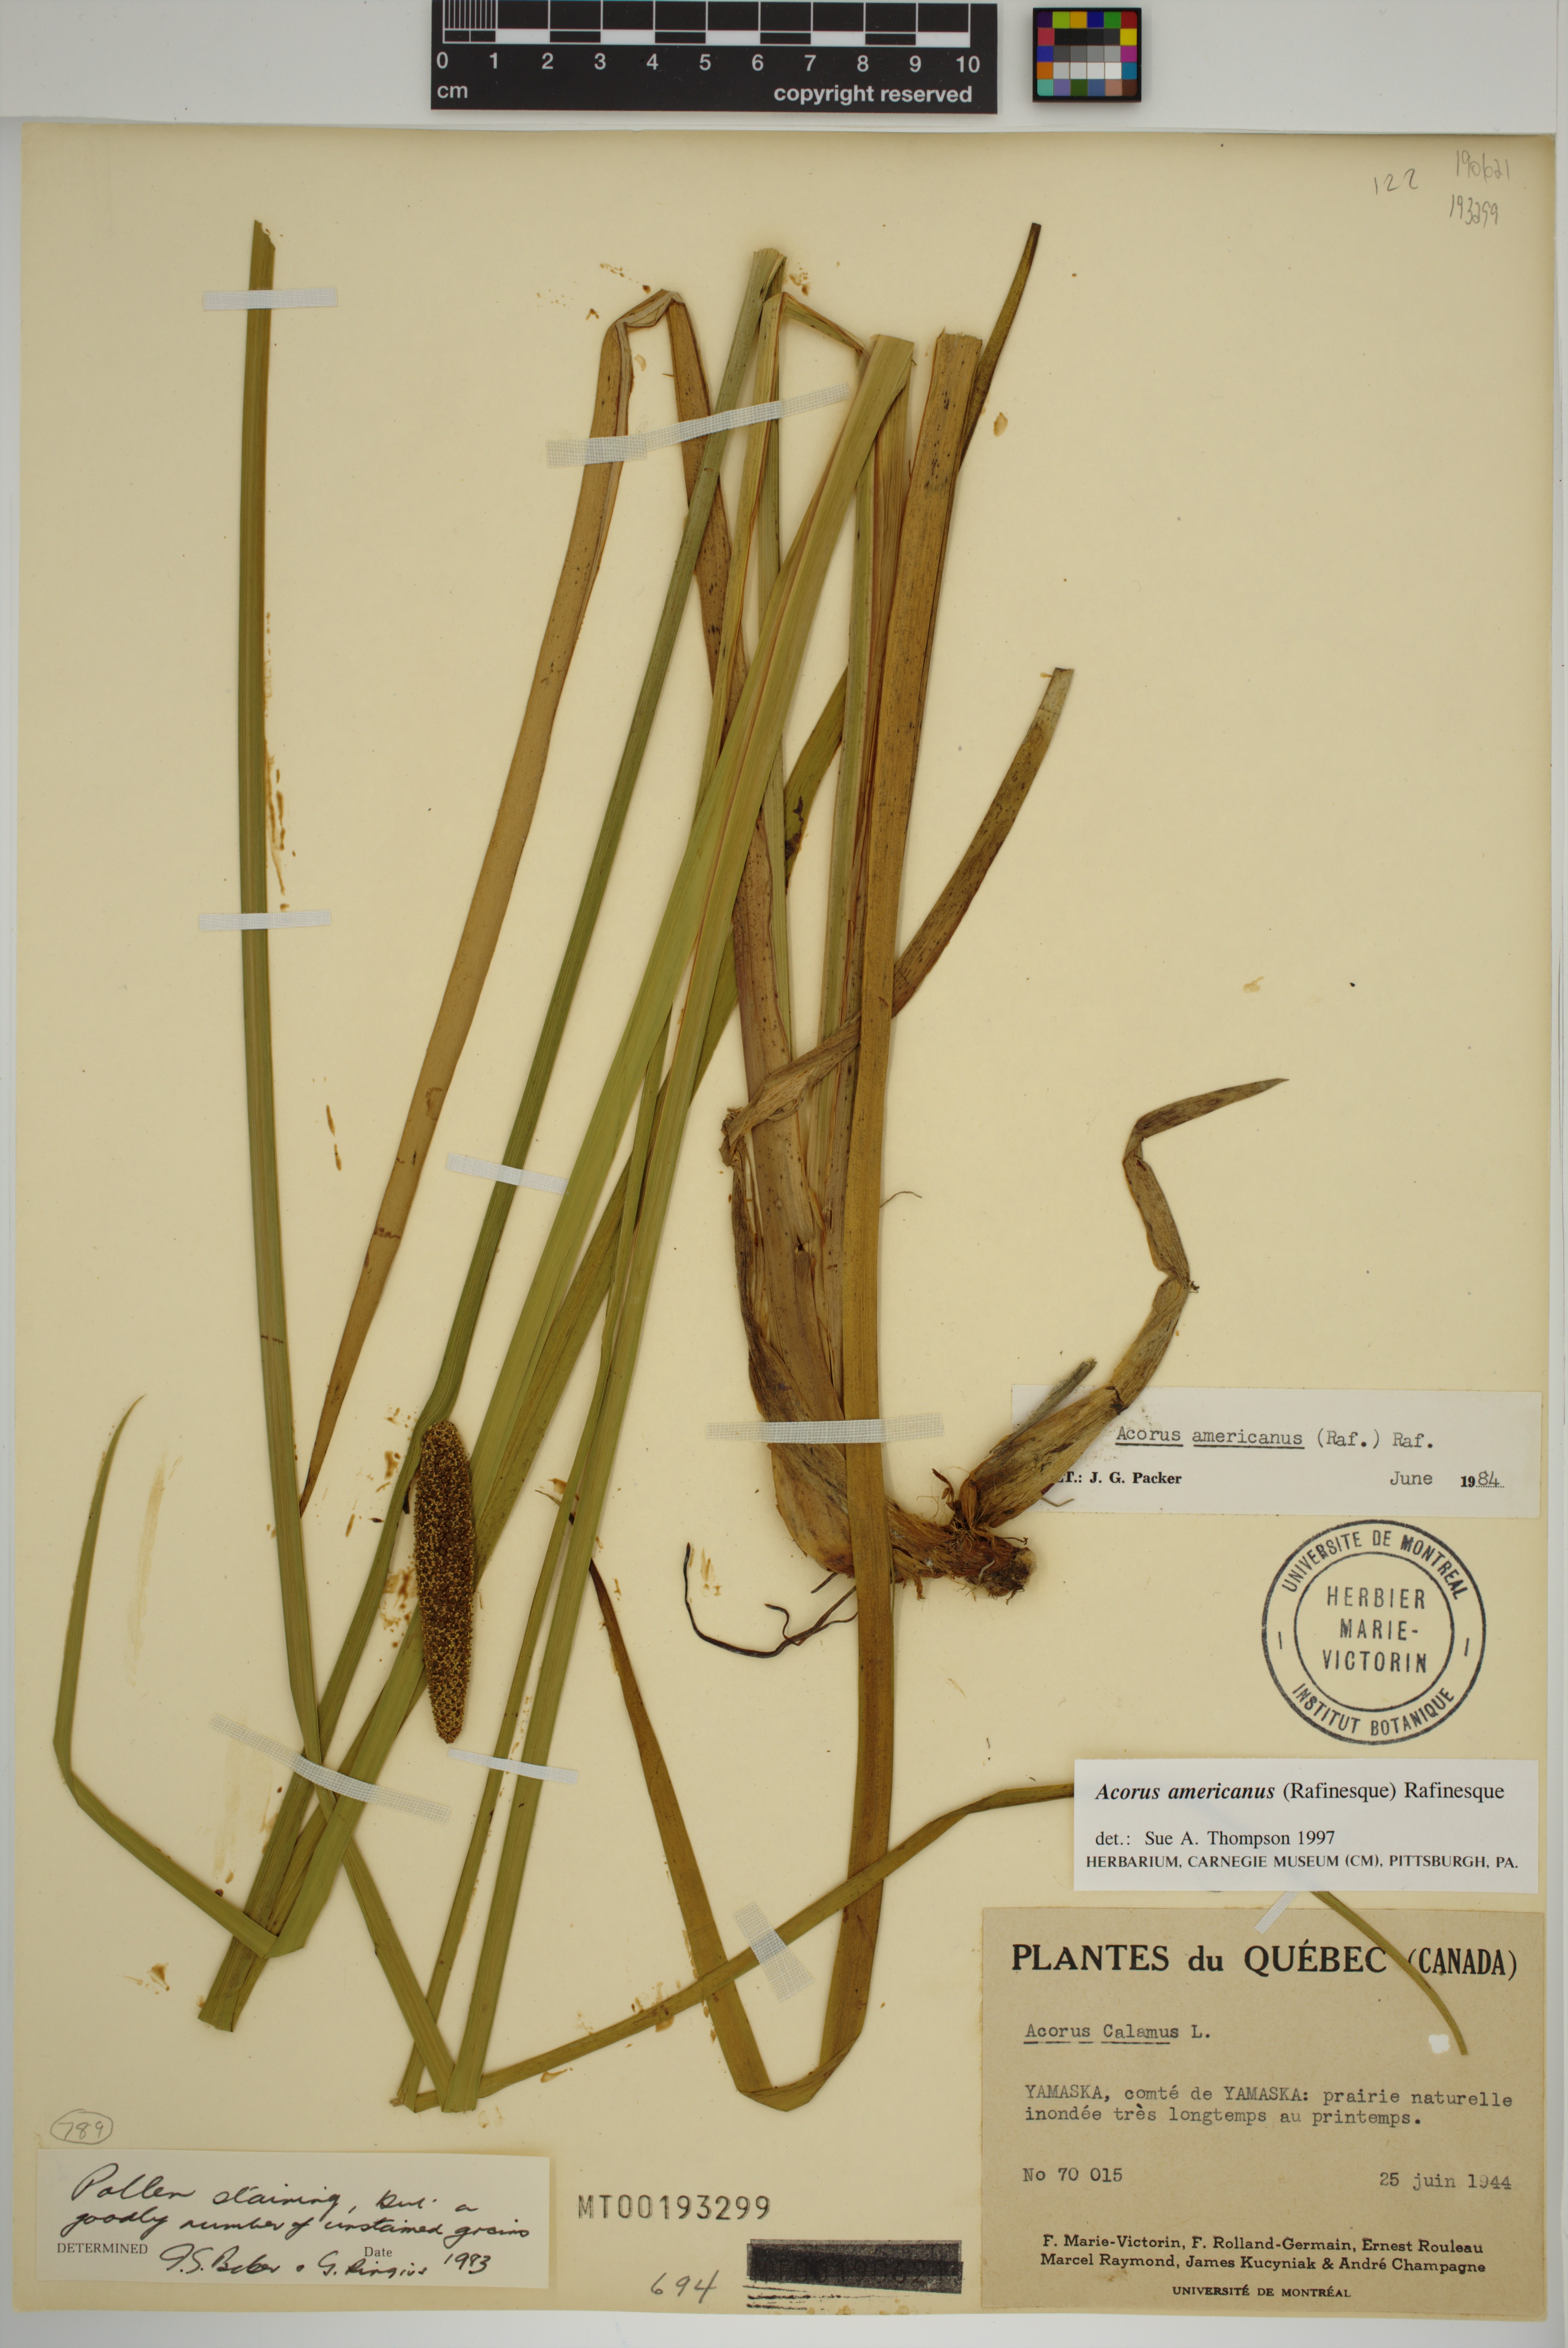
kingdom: Plantae
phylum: Tracheophyta
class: Liliopsida
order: Acorales
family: Acoraceae
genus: Acorus
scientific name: Acorus calamus
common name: Sweet-flag
